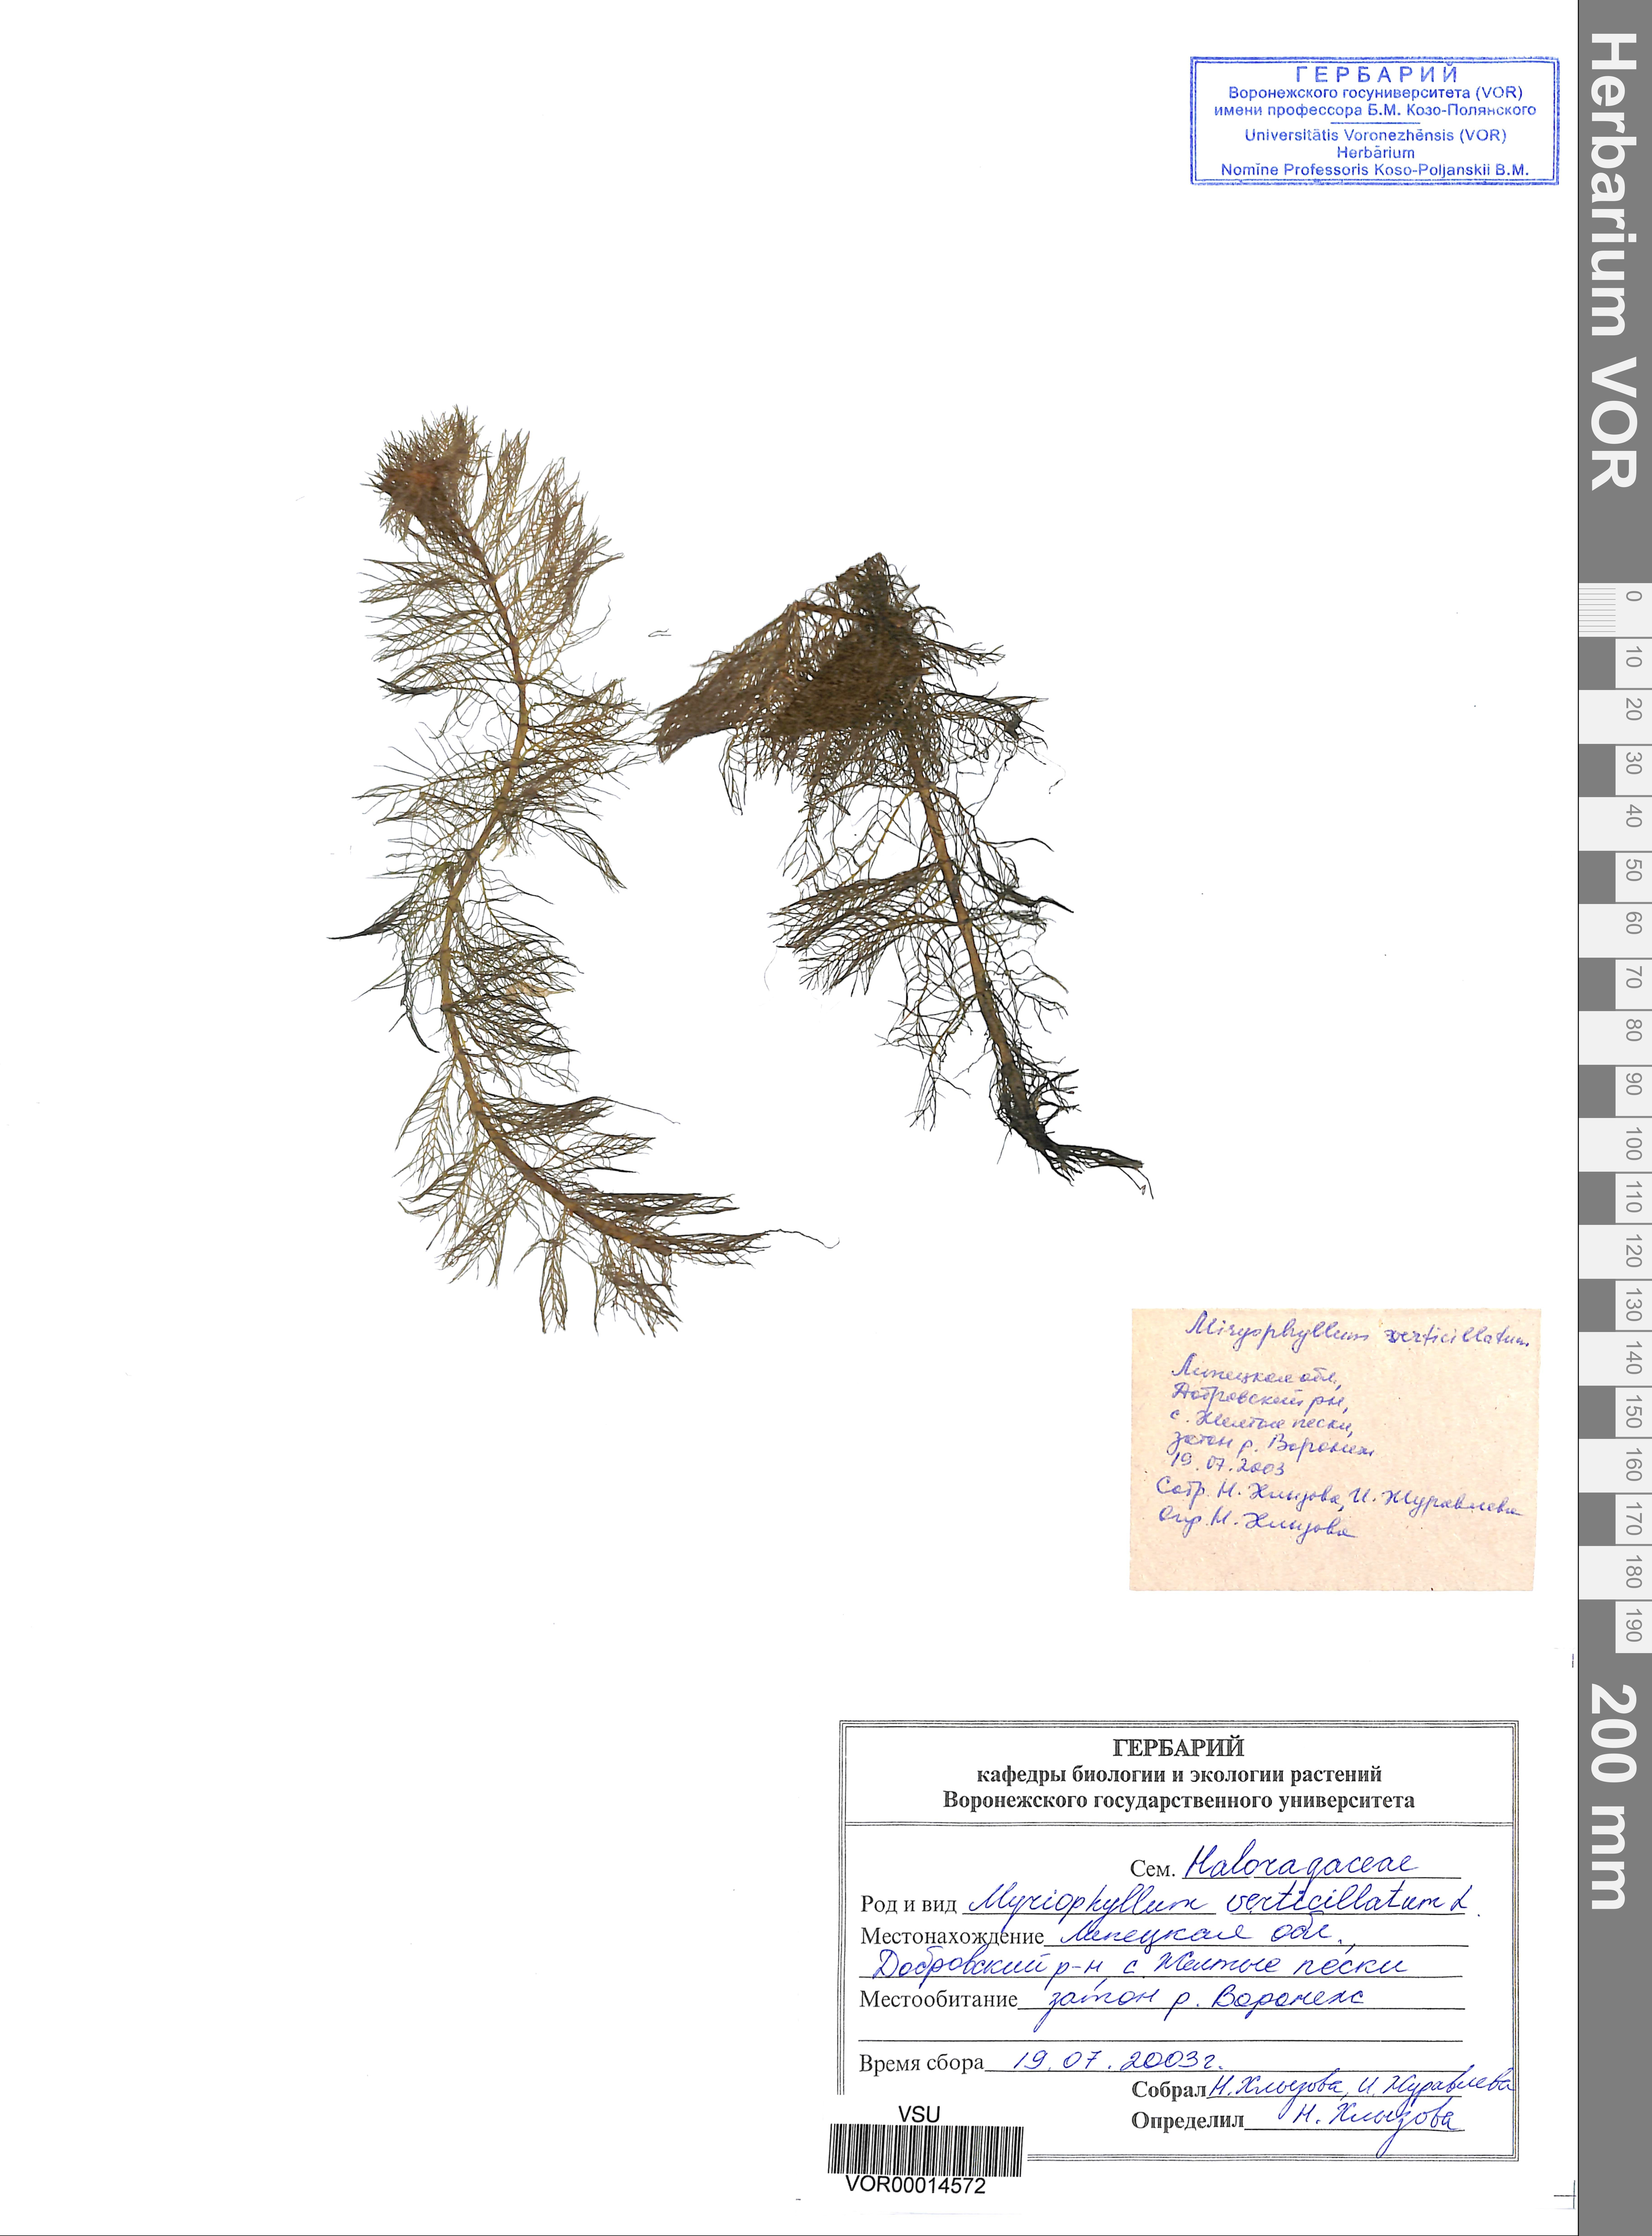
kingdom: Plantae
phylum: Tracheophyta
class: Magnoliopsida
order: Saxifragales
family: Haloragaceae
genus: Myriophyllum
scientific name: Myriophyllum verticillatum
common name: Whorled water-milfoil
